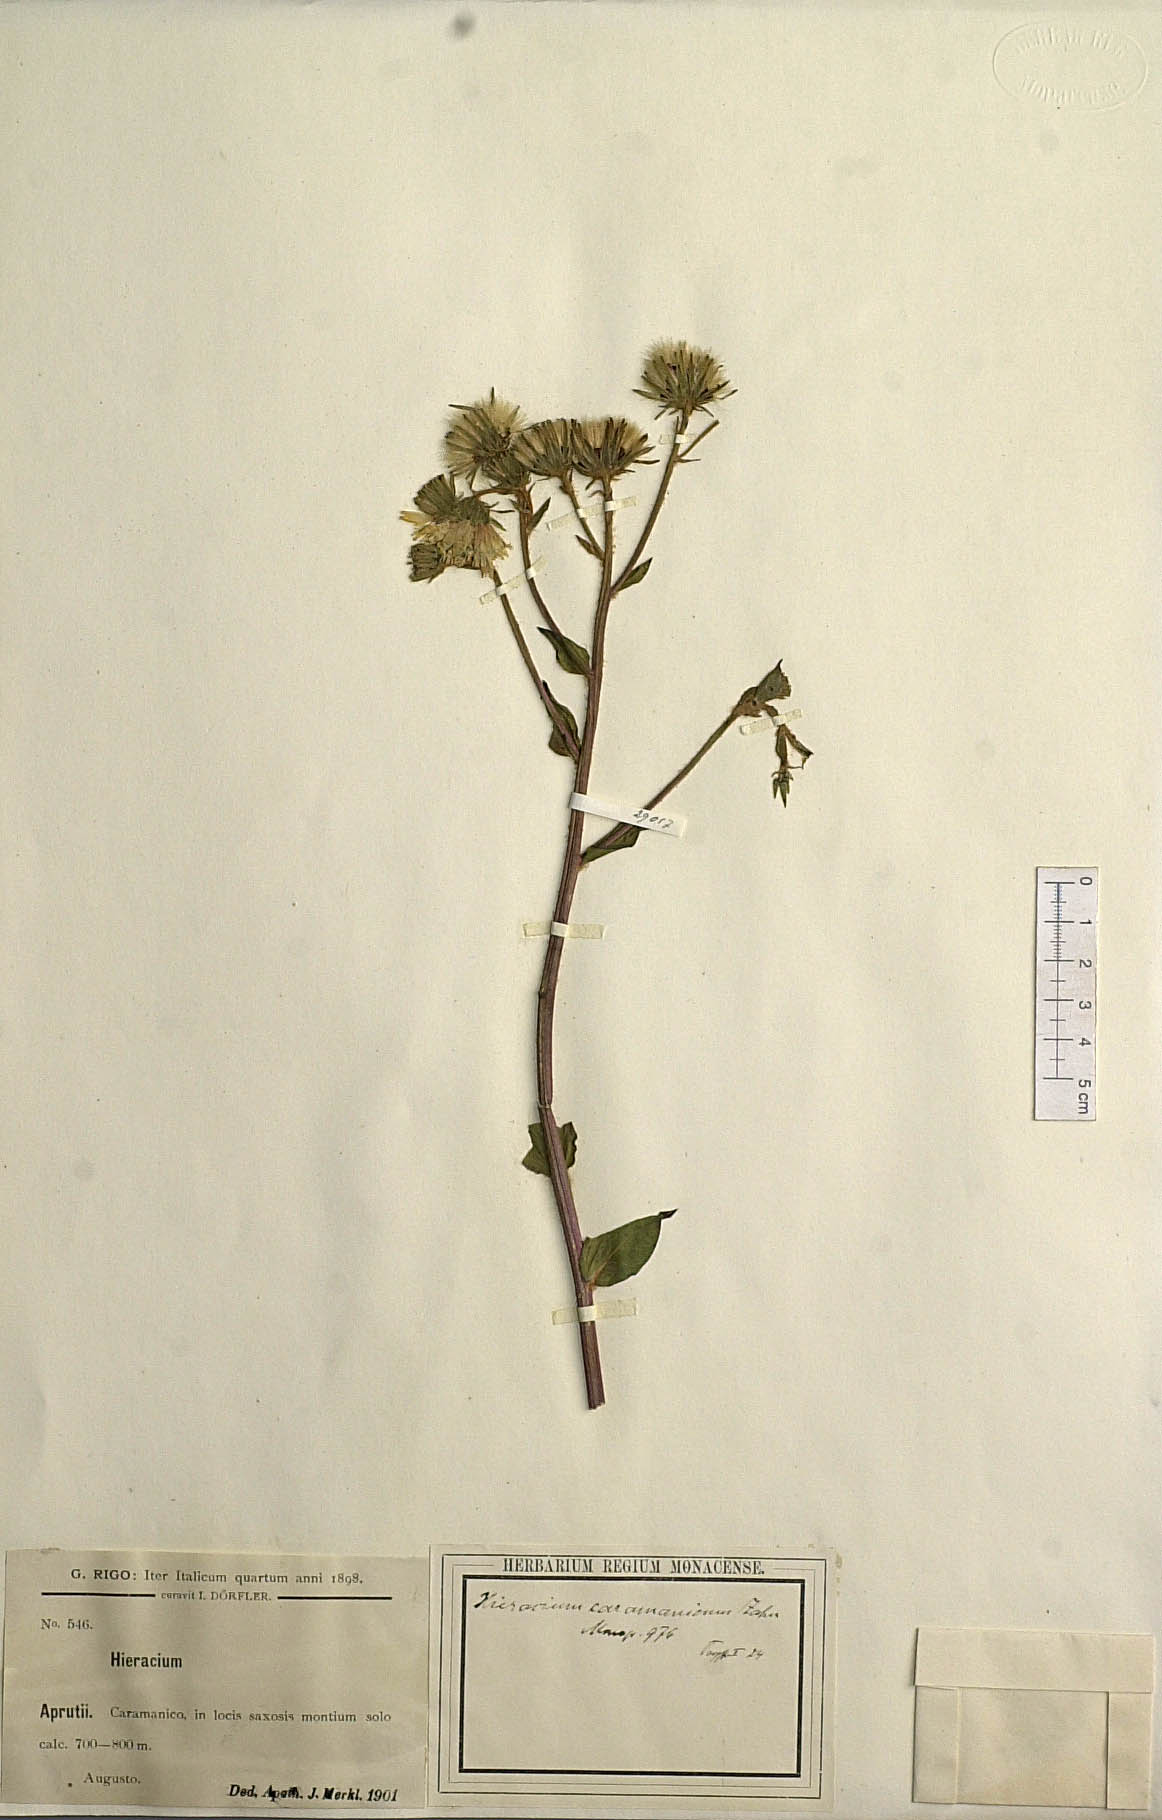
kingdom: Plantae
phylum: Tracheophyta
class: Magnoliopsida
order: Asterales
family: Asteraceae
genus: Hieracium
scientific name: Hieracium racemosum
